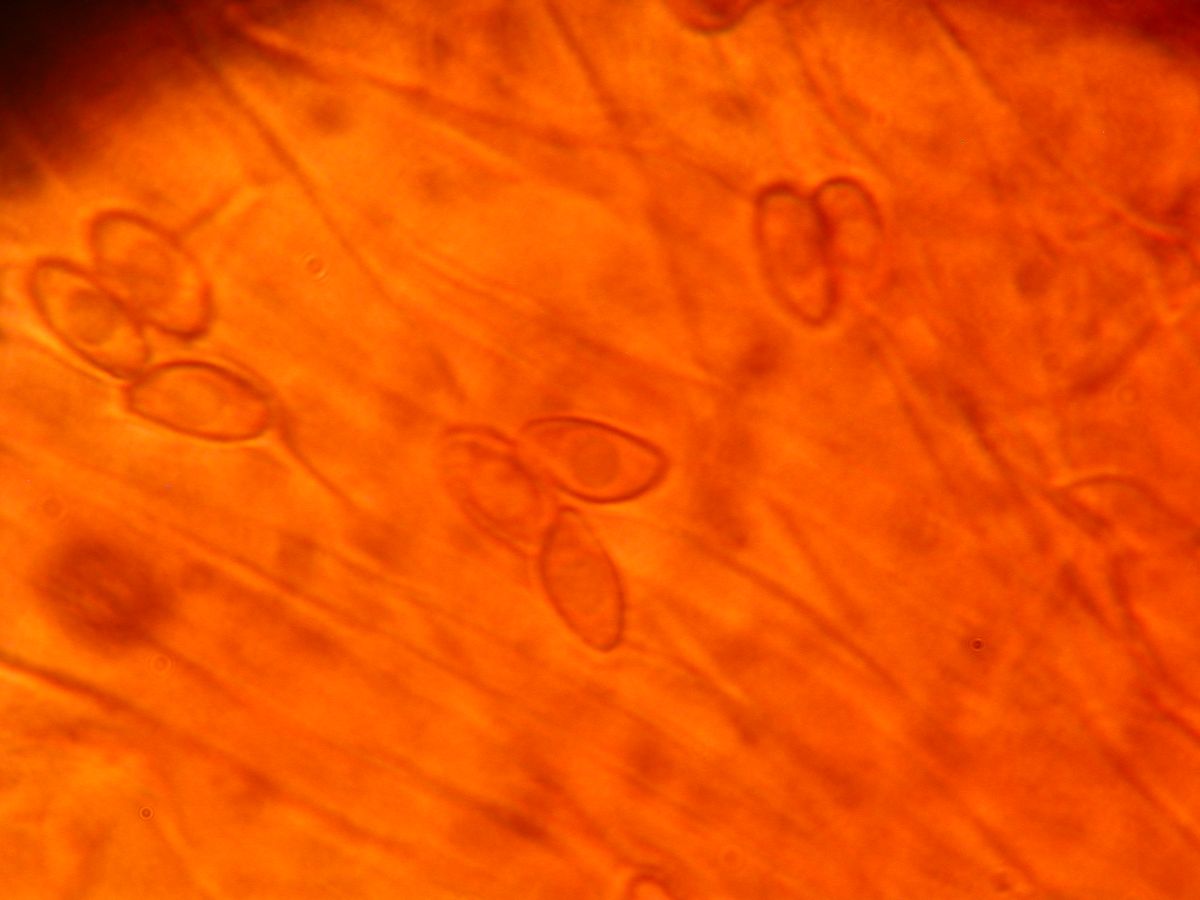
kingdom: Fungi
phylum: Basidiomycota
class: Agaricomycetes
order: Agaricales
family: Cortinariaceae
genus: Cortinarius
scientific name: Cortinarius pinisquamulosus
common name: finskællet slørhat
